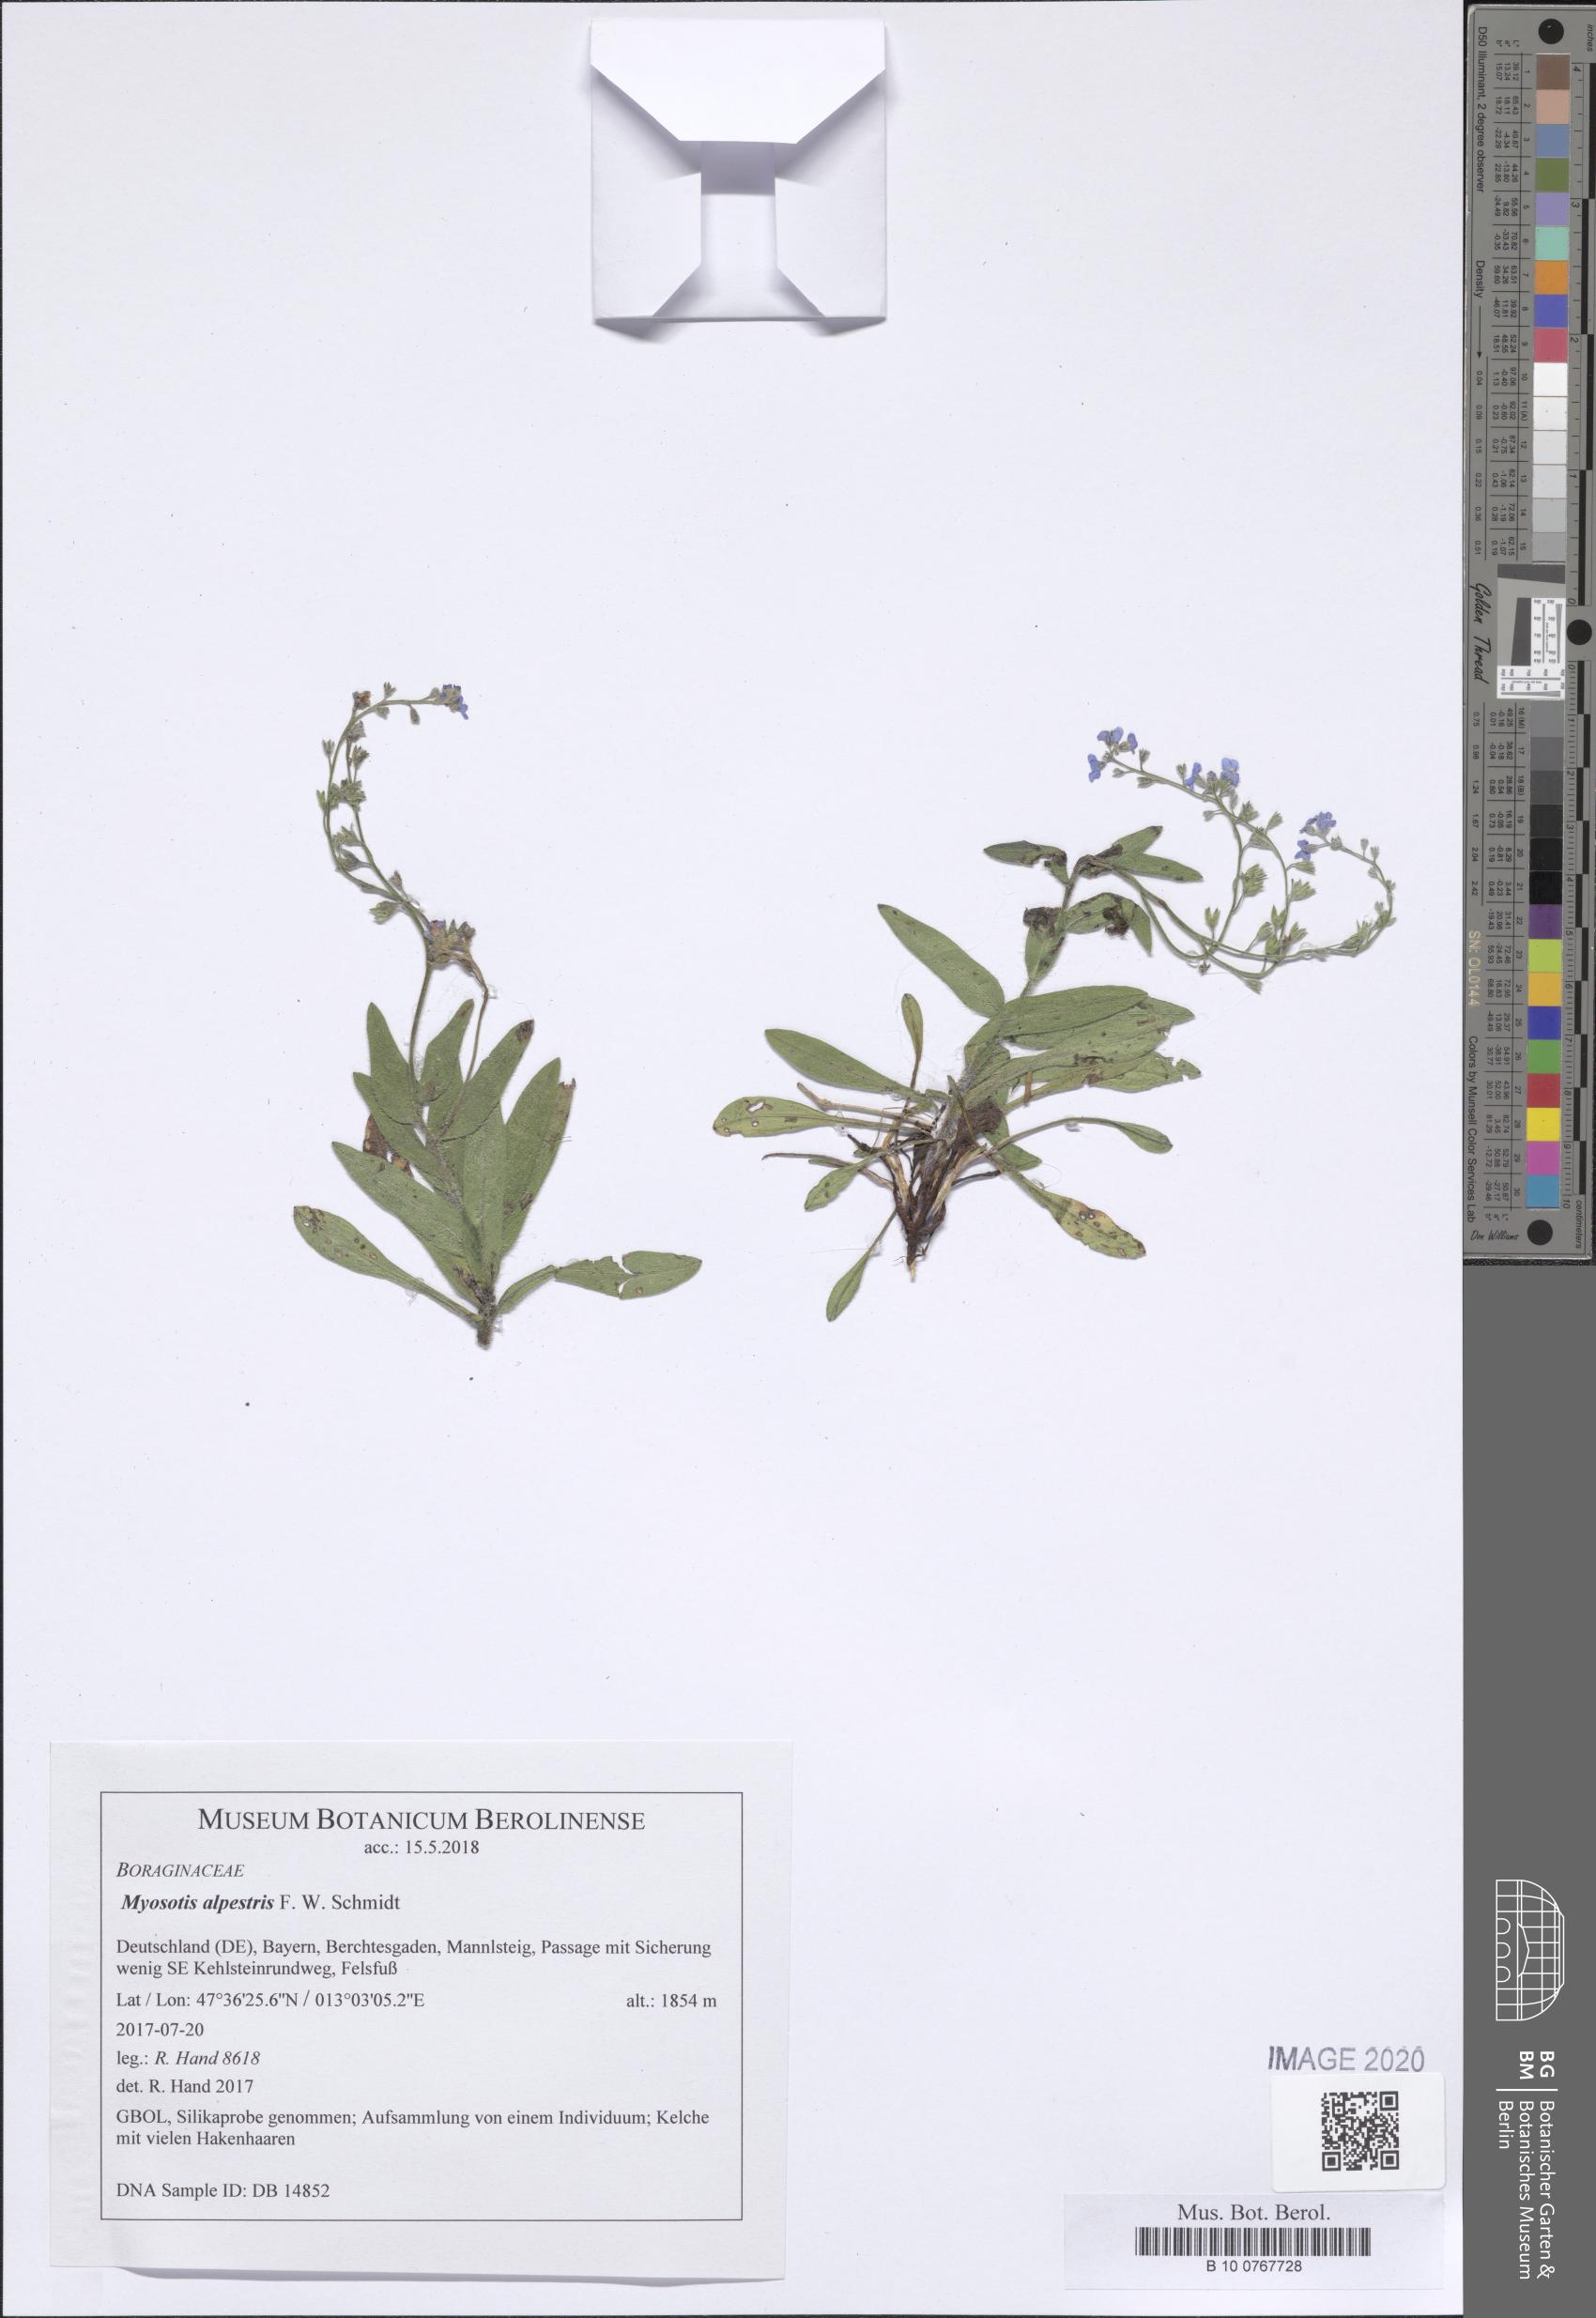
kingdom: Plantae
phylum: Tracheophyta
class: Magnoliopsida
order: Boraginales
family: Boraginaceae
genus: Myosotis
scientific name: Myosotis alpestris
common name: Alpine forget-me-not
